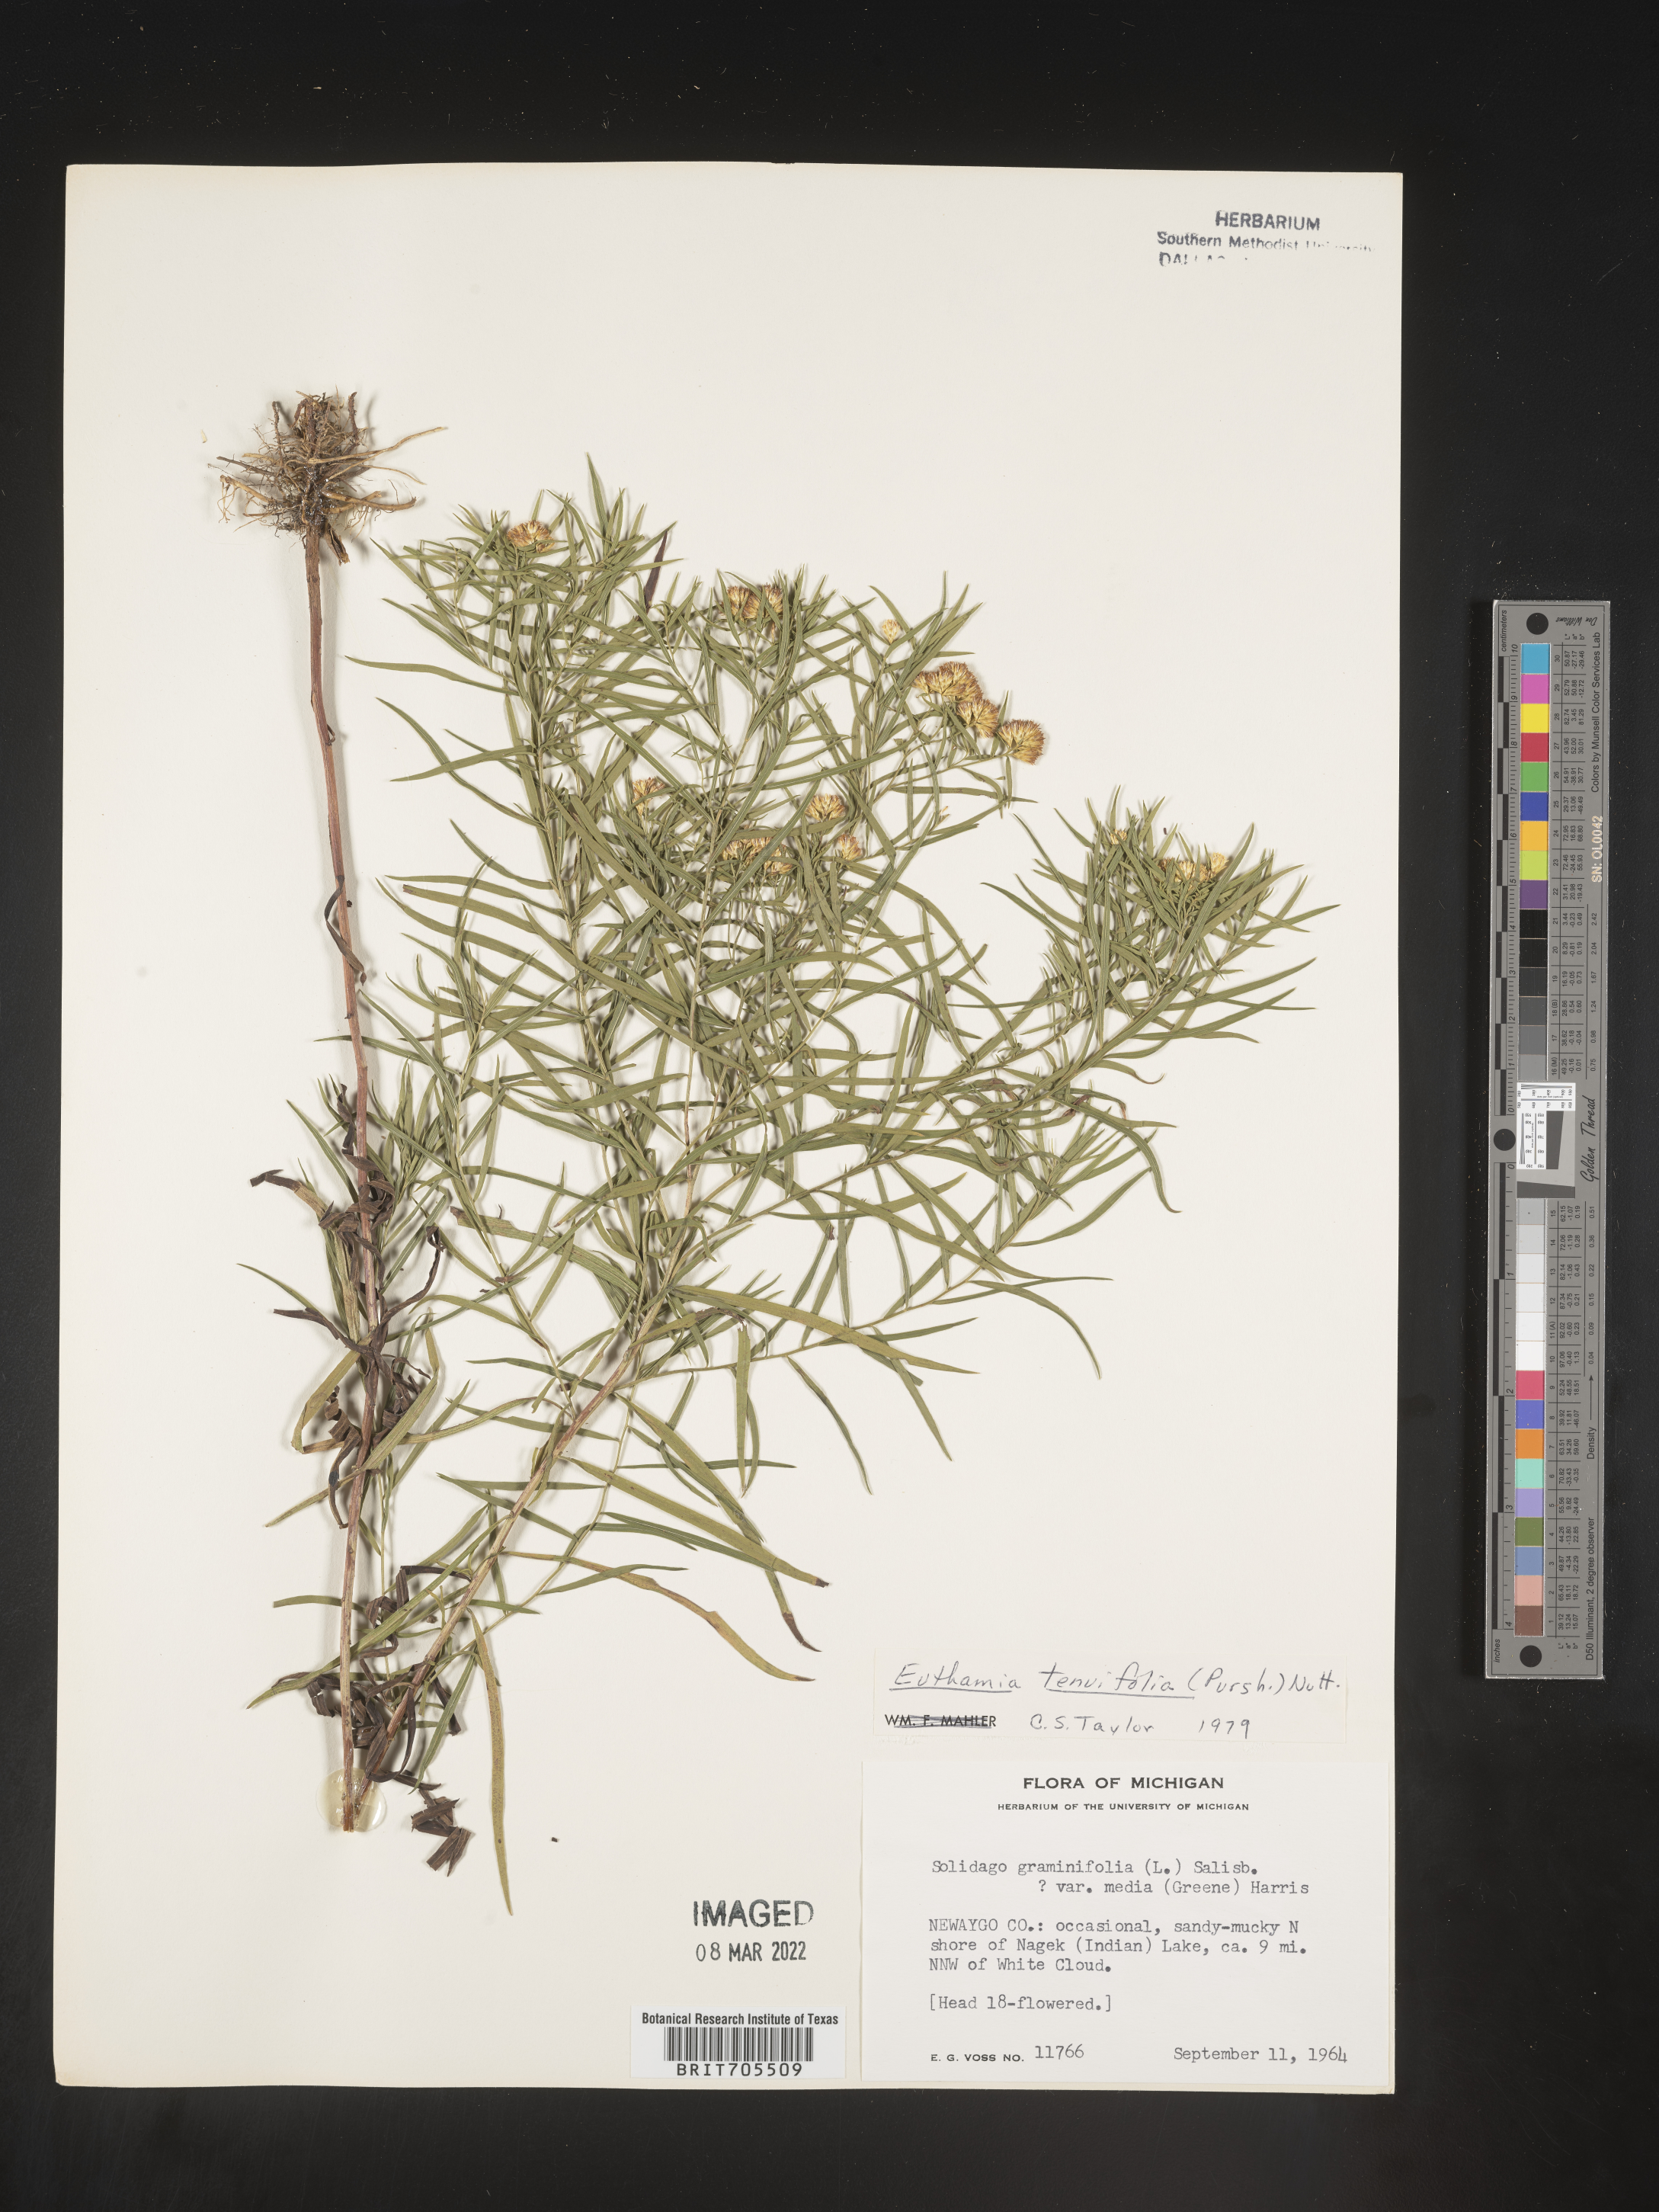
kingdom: Plantae
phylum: Tracheophyta
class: Magnoliopsida
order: Asterales
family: Asteraceae
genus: Euthamia
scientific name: Euthamia caroliniana
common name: Coastal plain goldentop
